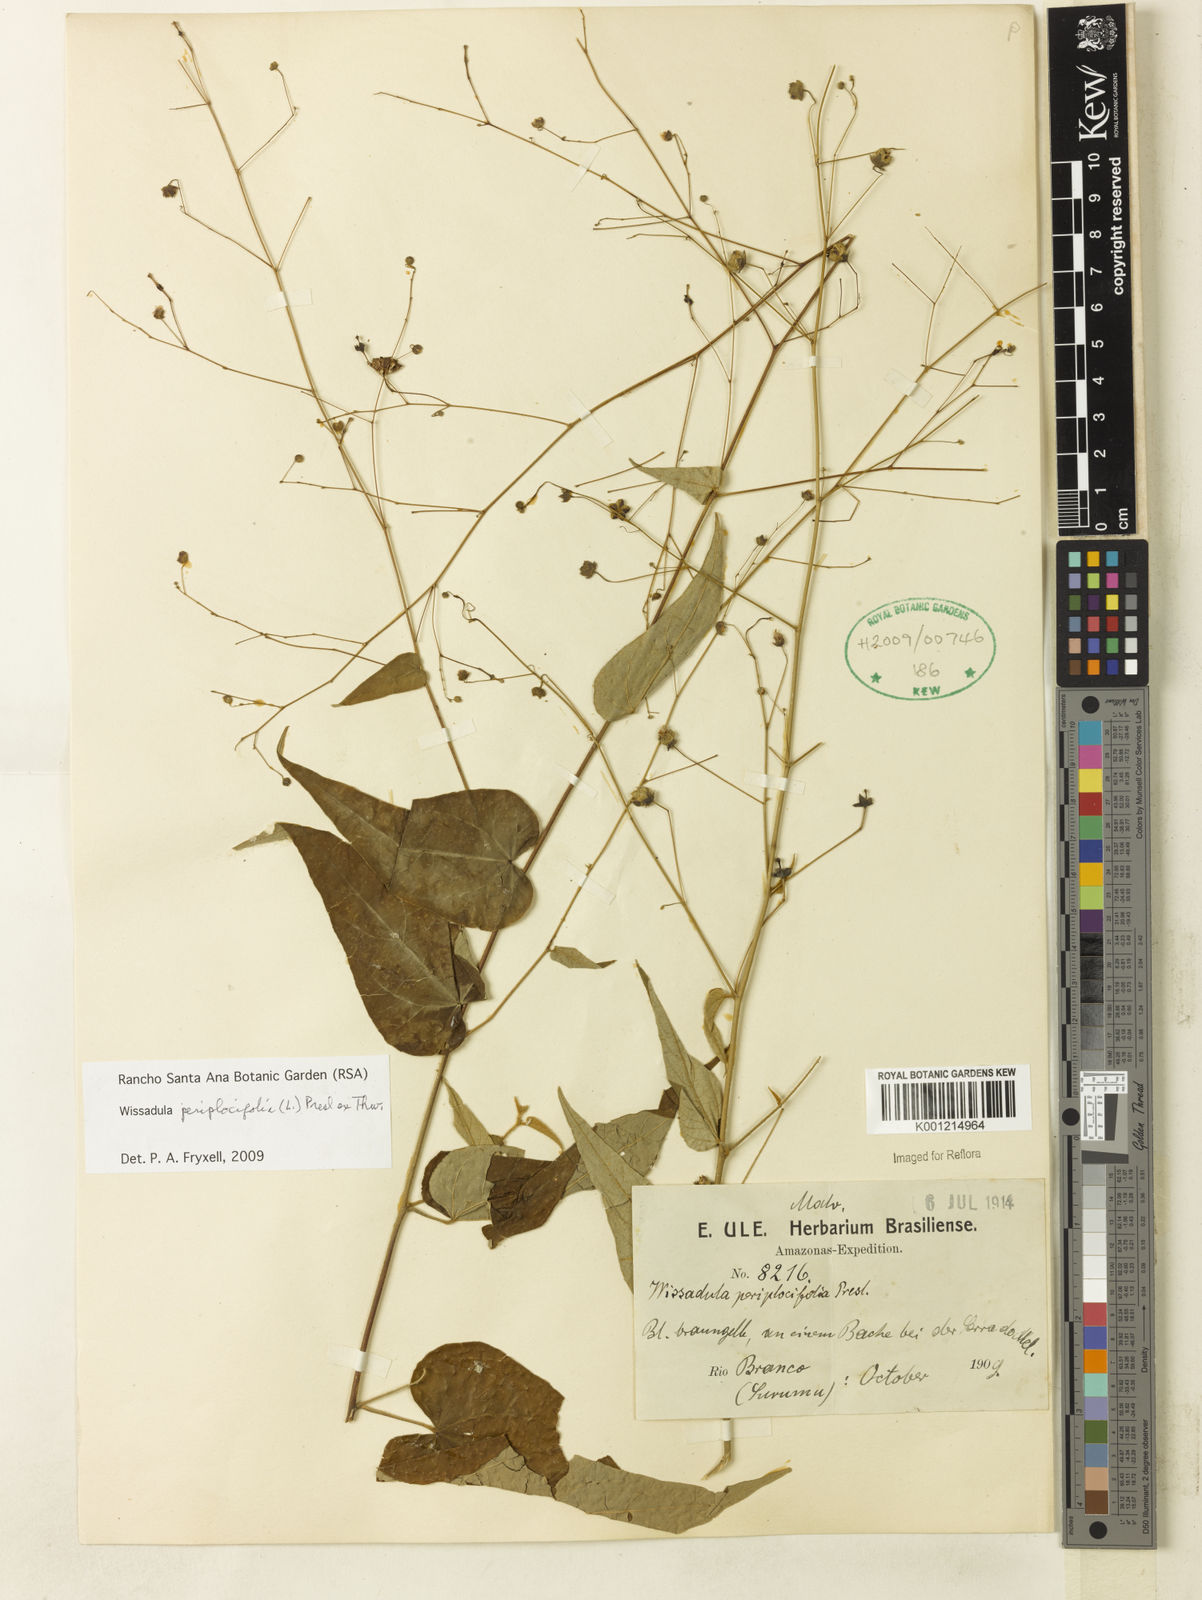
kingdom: Plantae
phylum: Tracheophyta
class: Magnoliopsida
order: Malvales
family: Malvaceae
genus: Wissadula
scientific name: Wissadula periplocifolia
